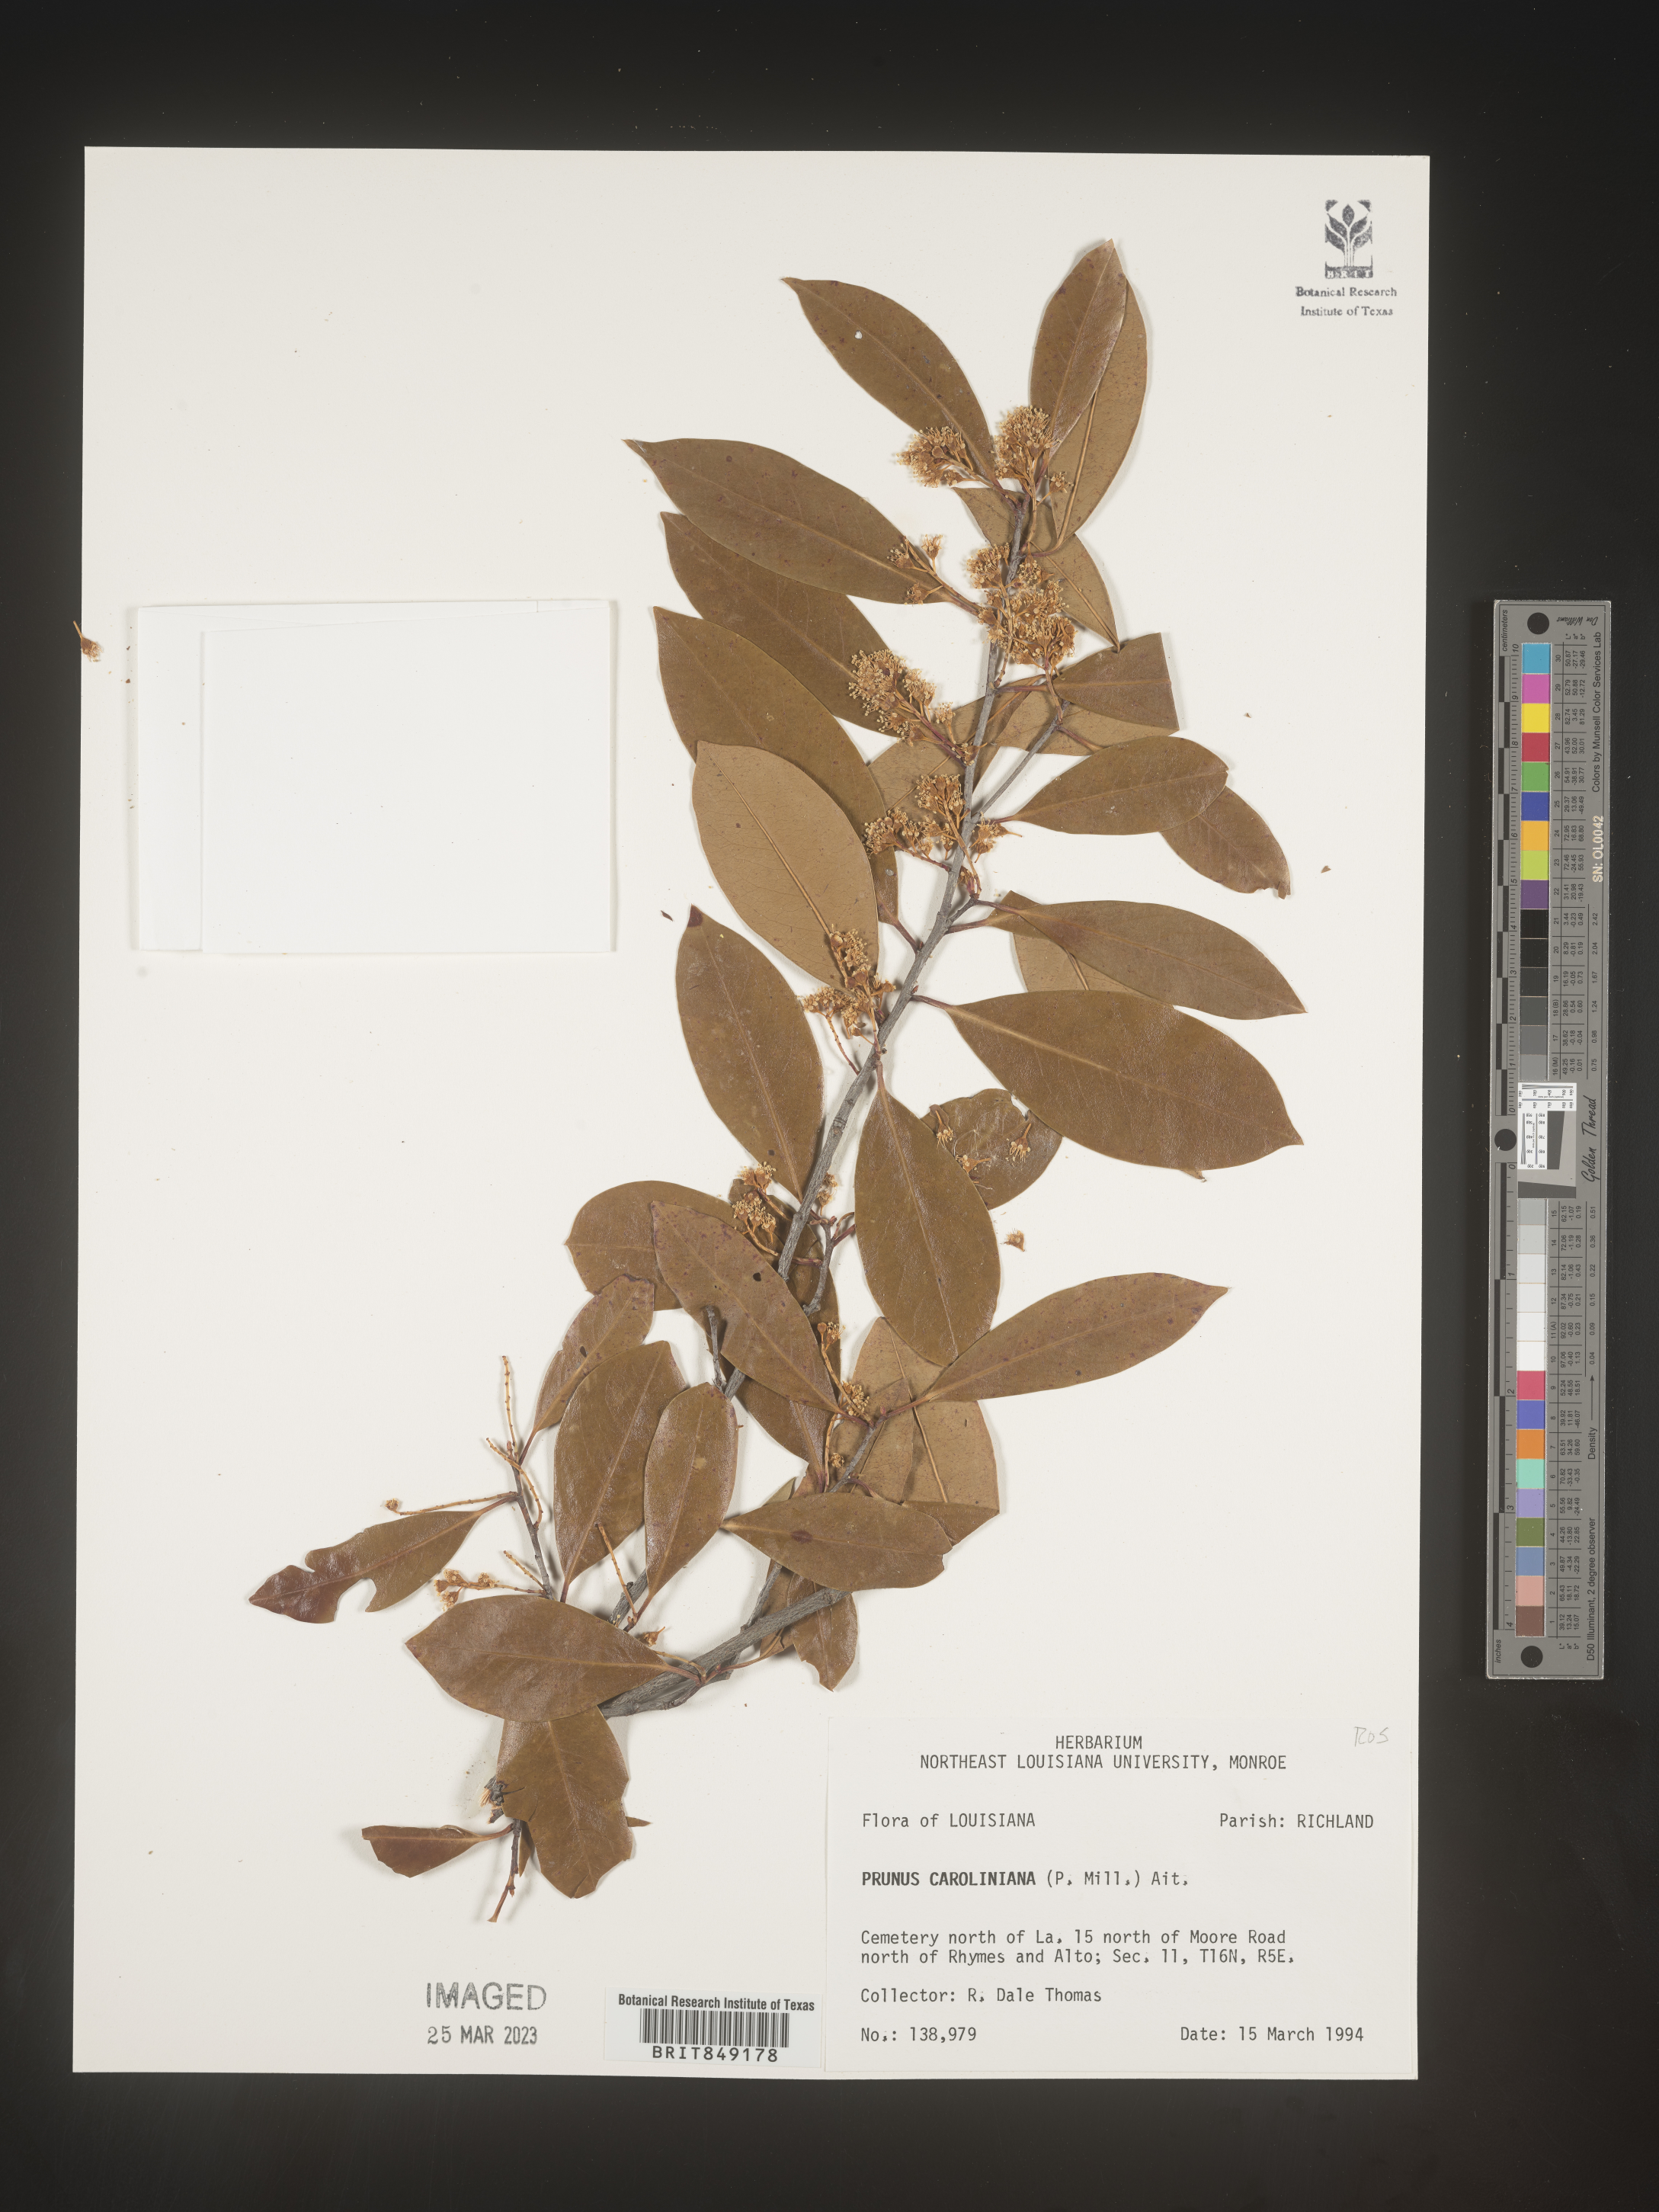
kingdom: Plantae
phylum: Tracheophyta
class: Magnoliopsida
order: Rosales
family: Rosaceae
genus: Prunus
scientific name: Prunus caroliniana
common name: Carolina laurel cherry
